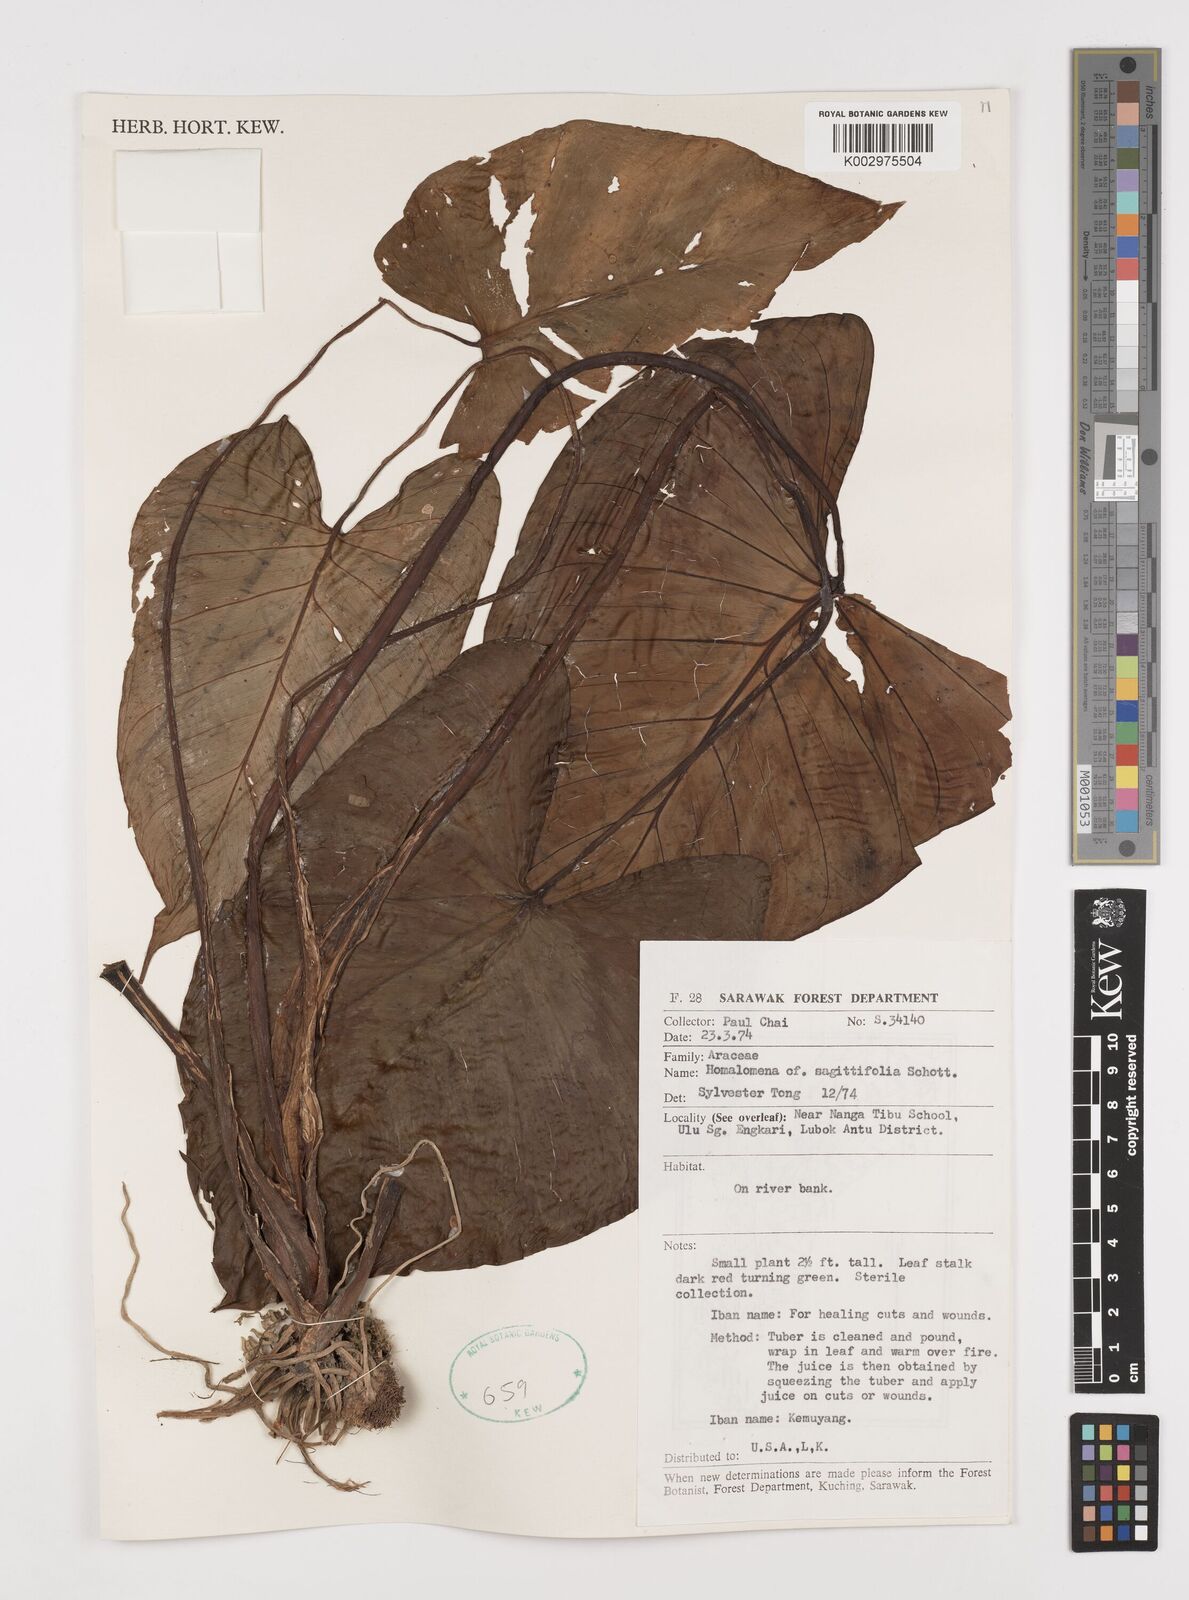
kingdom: Plantae
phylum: Tracheophyta
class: Liliopsida
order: Alismatales
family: Araceae
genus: Homalomena
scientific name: Homalomena rostrata
